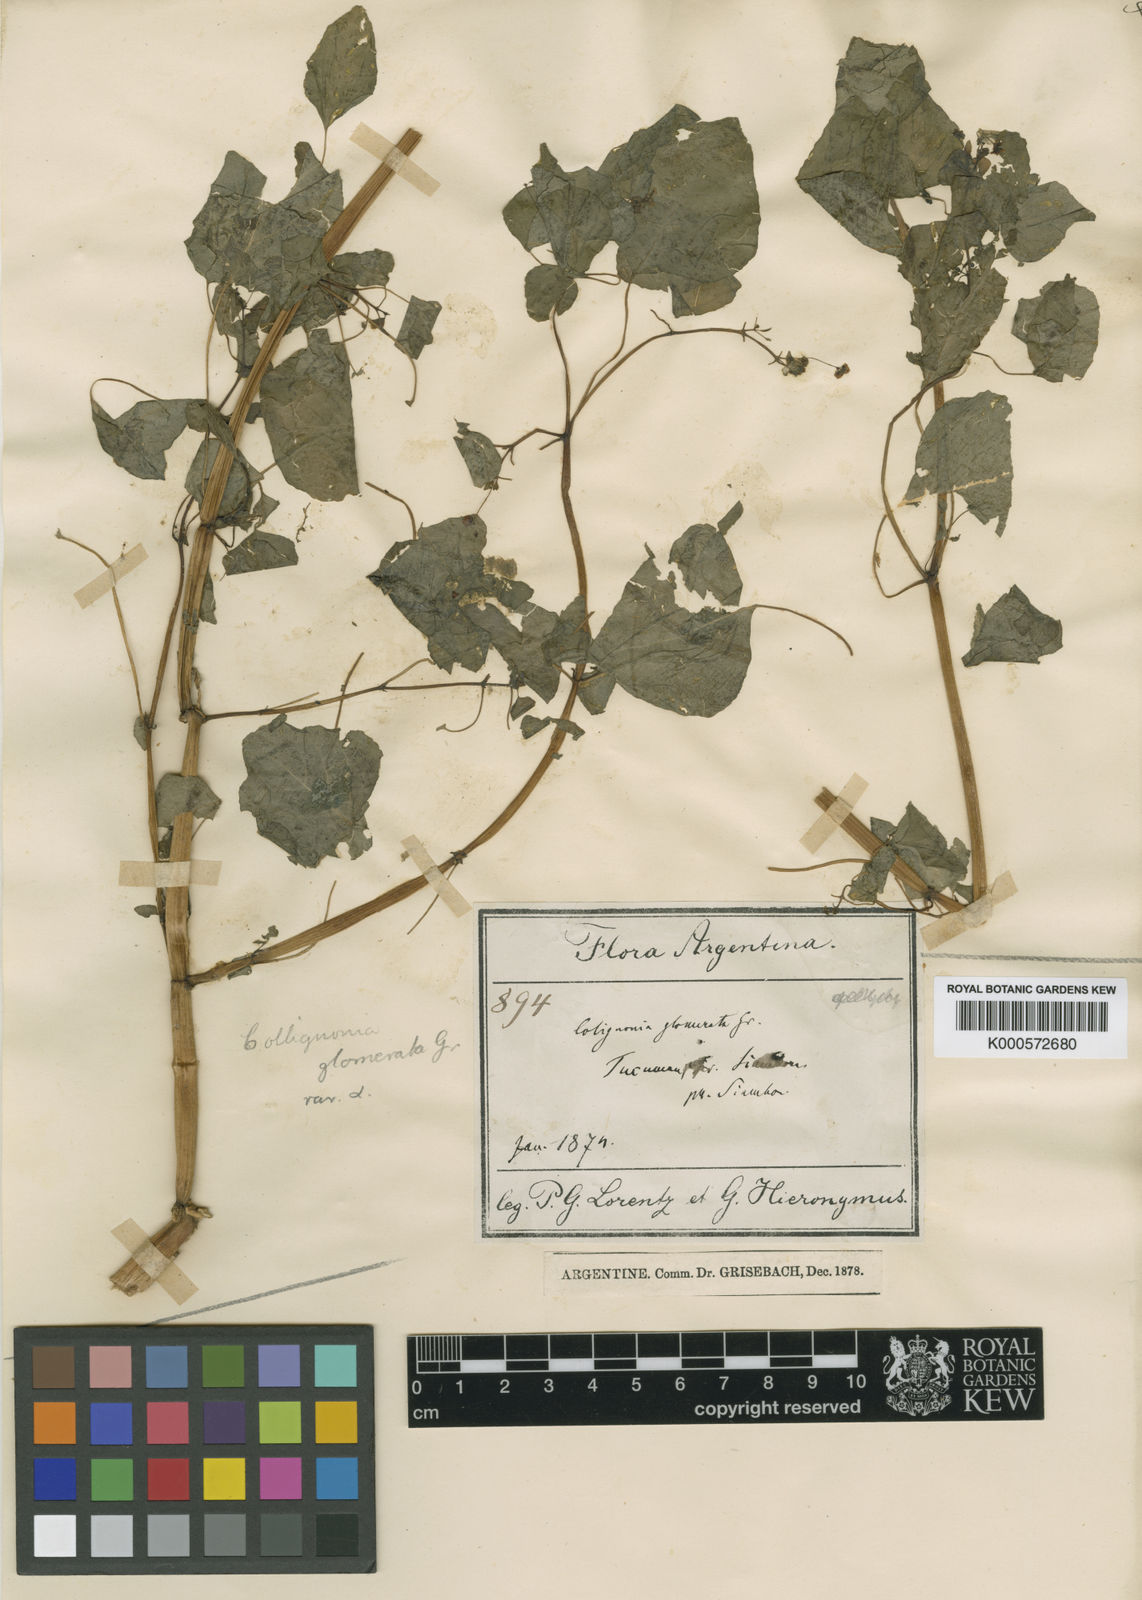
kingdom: Plantae
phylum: Tracheophyta
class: Magnoliopsida
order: Caryophyllales
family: Nyctaginaceae
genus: Colignonia
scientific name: Colignonia glomerata
